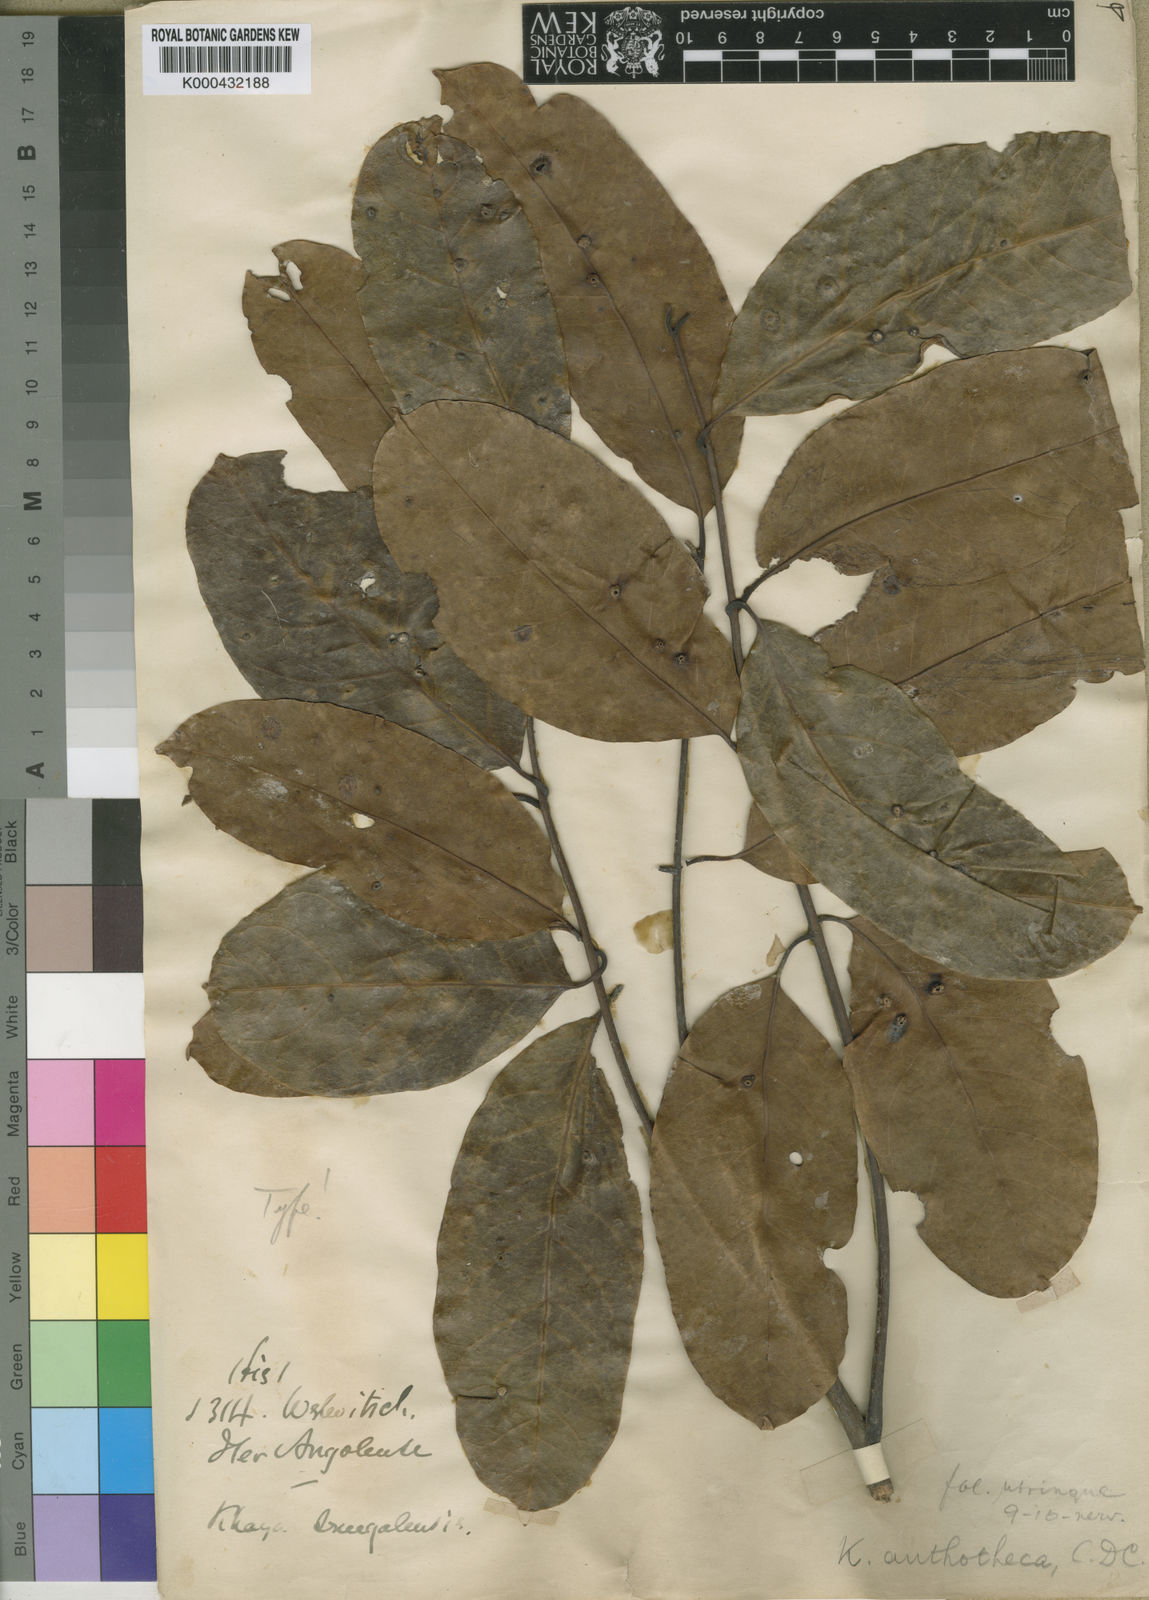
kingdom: Plantae
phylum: Tracheophyta
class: Magnoliopsida
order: Sapindales
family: Meliaceae
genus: Khaya
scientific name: Khaya anthotheca
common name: Nyasaland mahogany
